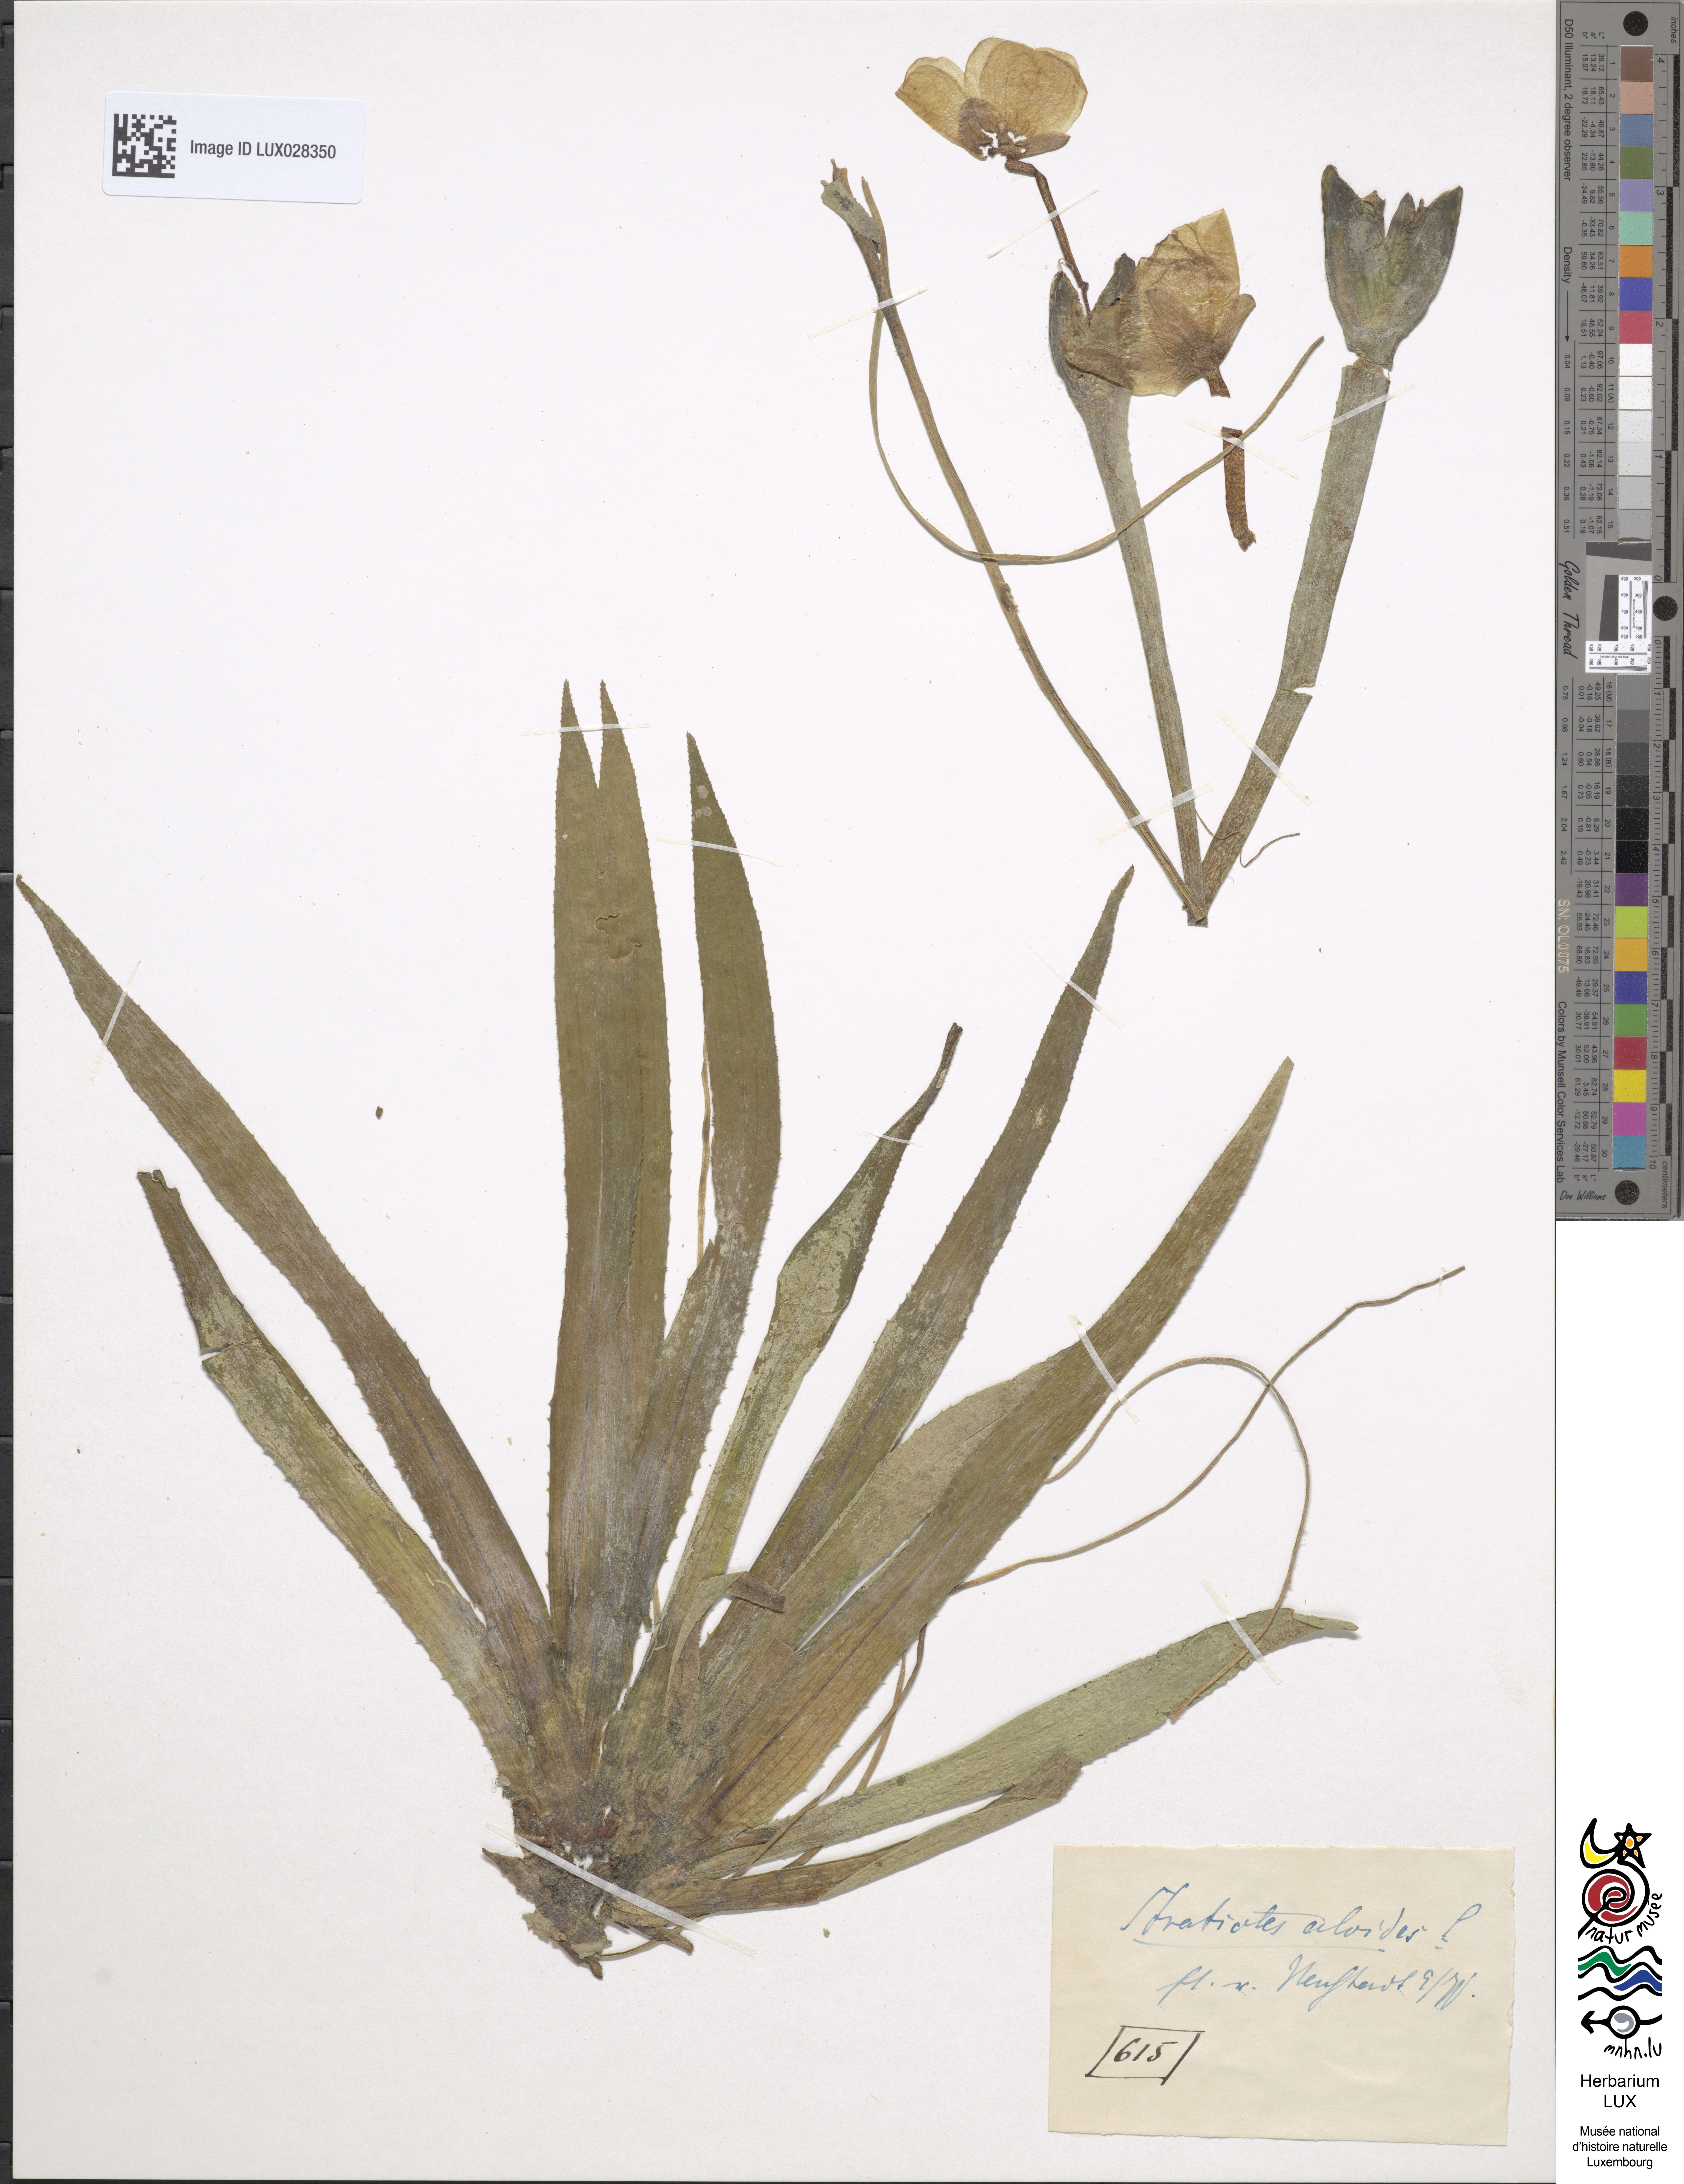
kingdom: Plantae
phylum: Tracheophyta
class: Liliopsida
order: Alismatales
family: Hydrocharitaceae
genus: Stratiotes
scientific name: Stratiotes aloides
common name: Water-soldier
